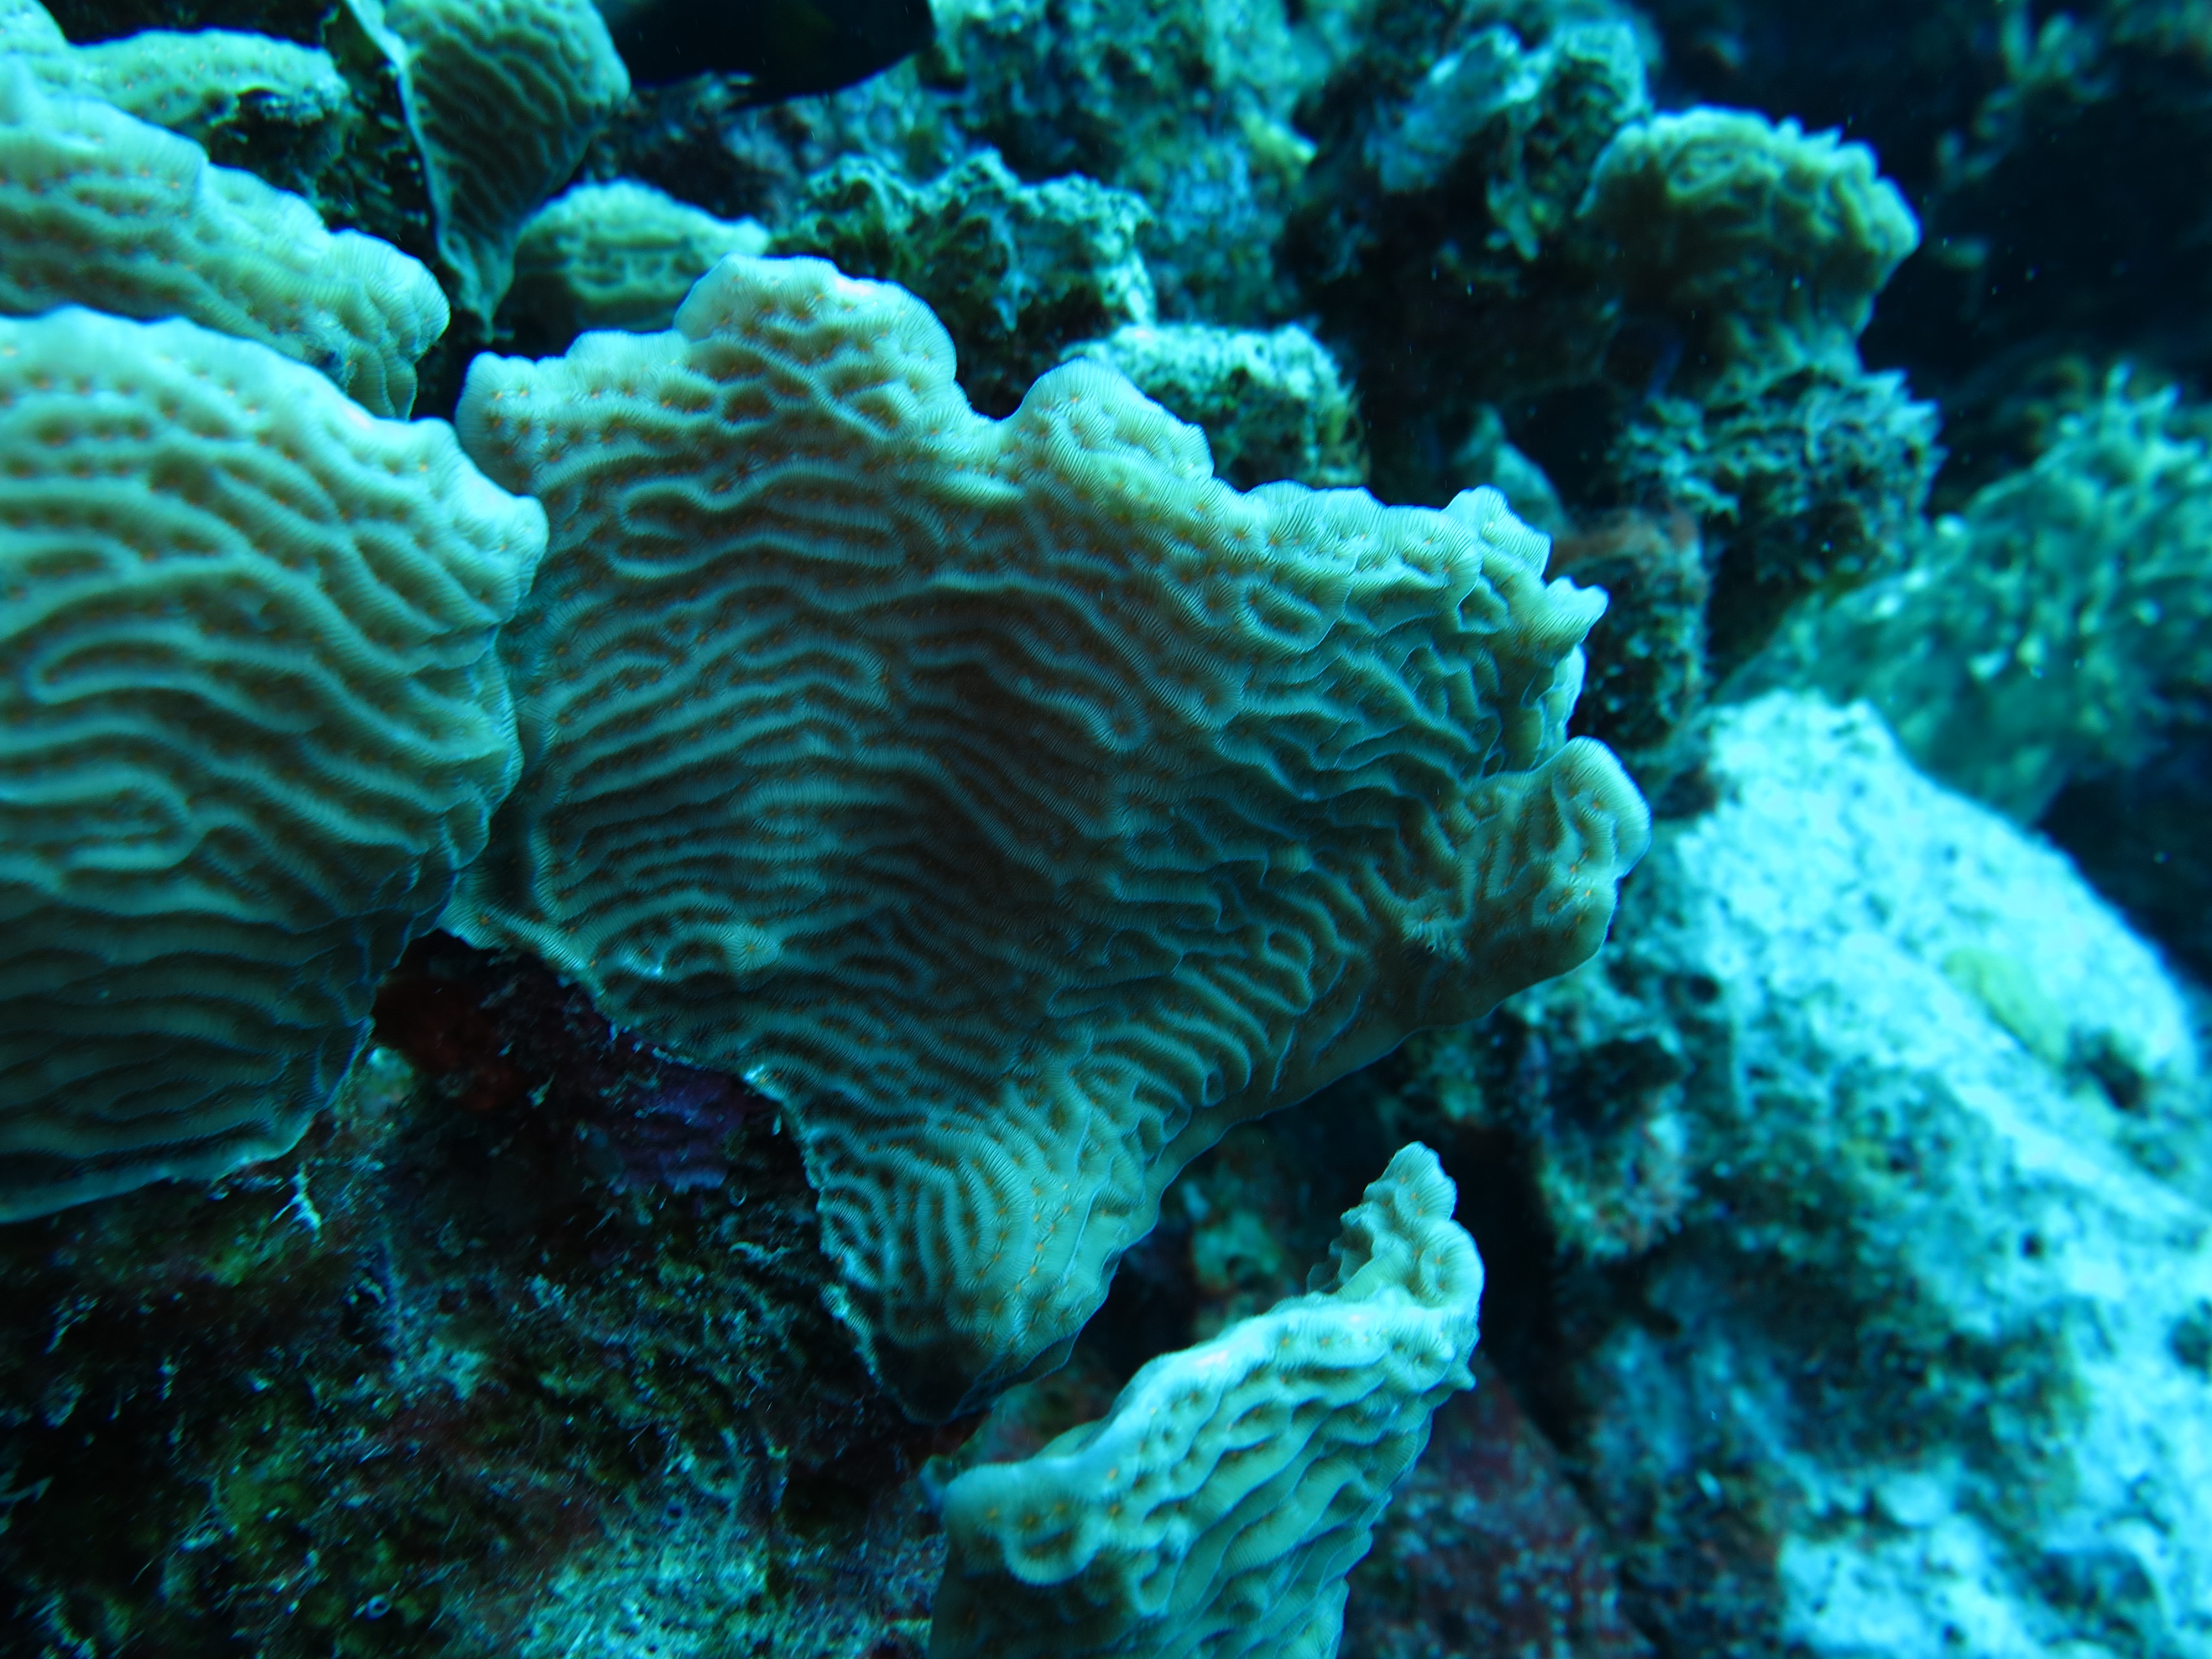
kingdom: Animalia
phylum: Cnidaria
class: Anthozoa
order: Scleractinia
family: Agariciidae
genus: Agaricia
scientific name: Agaricia agaricites
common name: Lettuce coral
